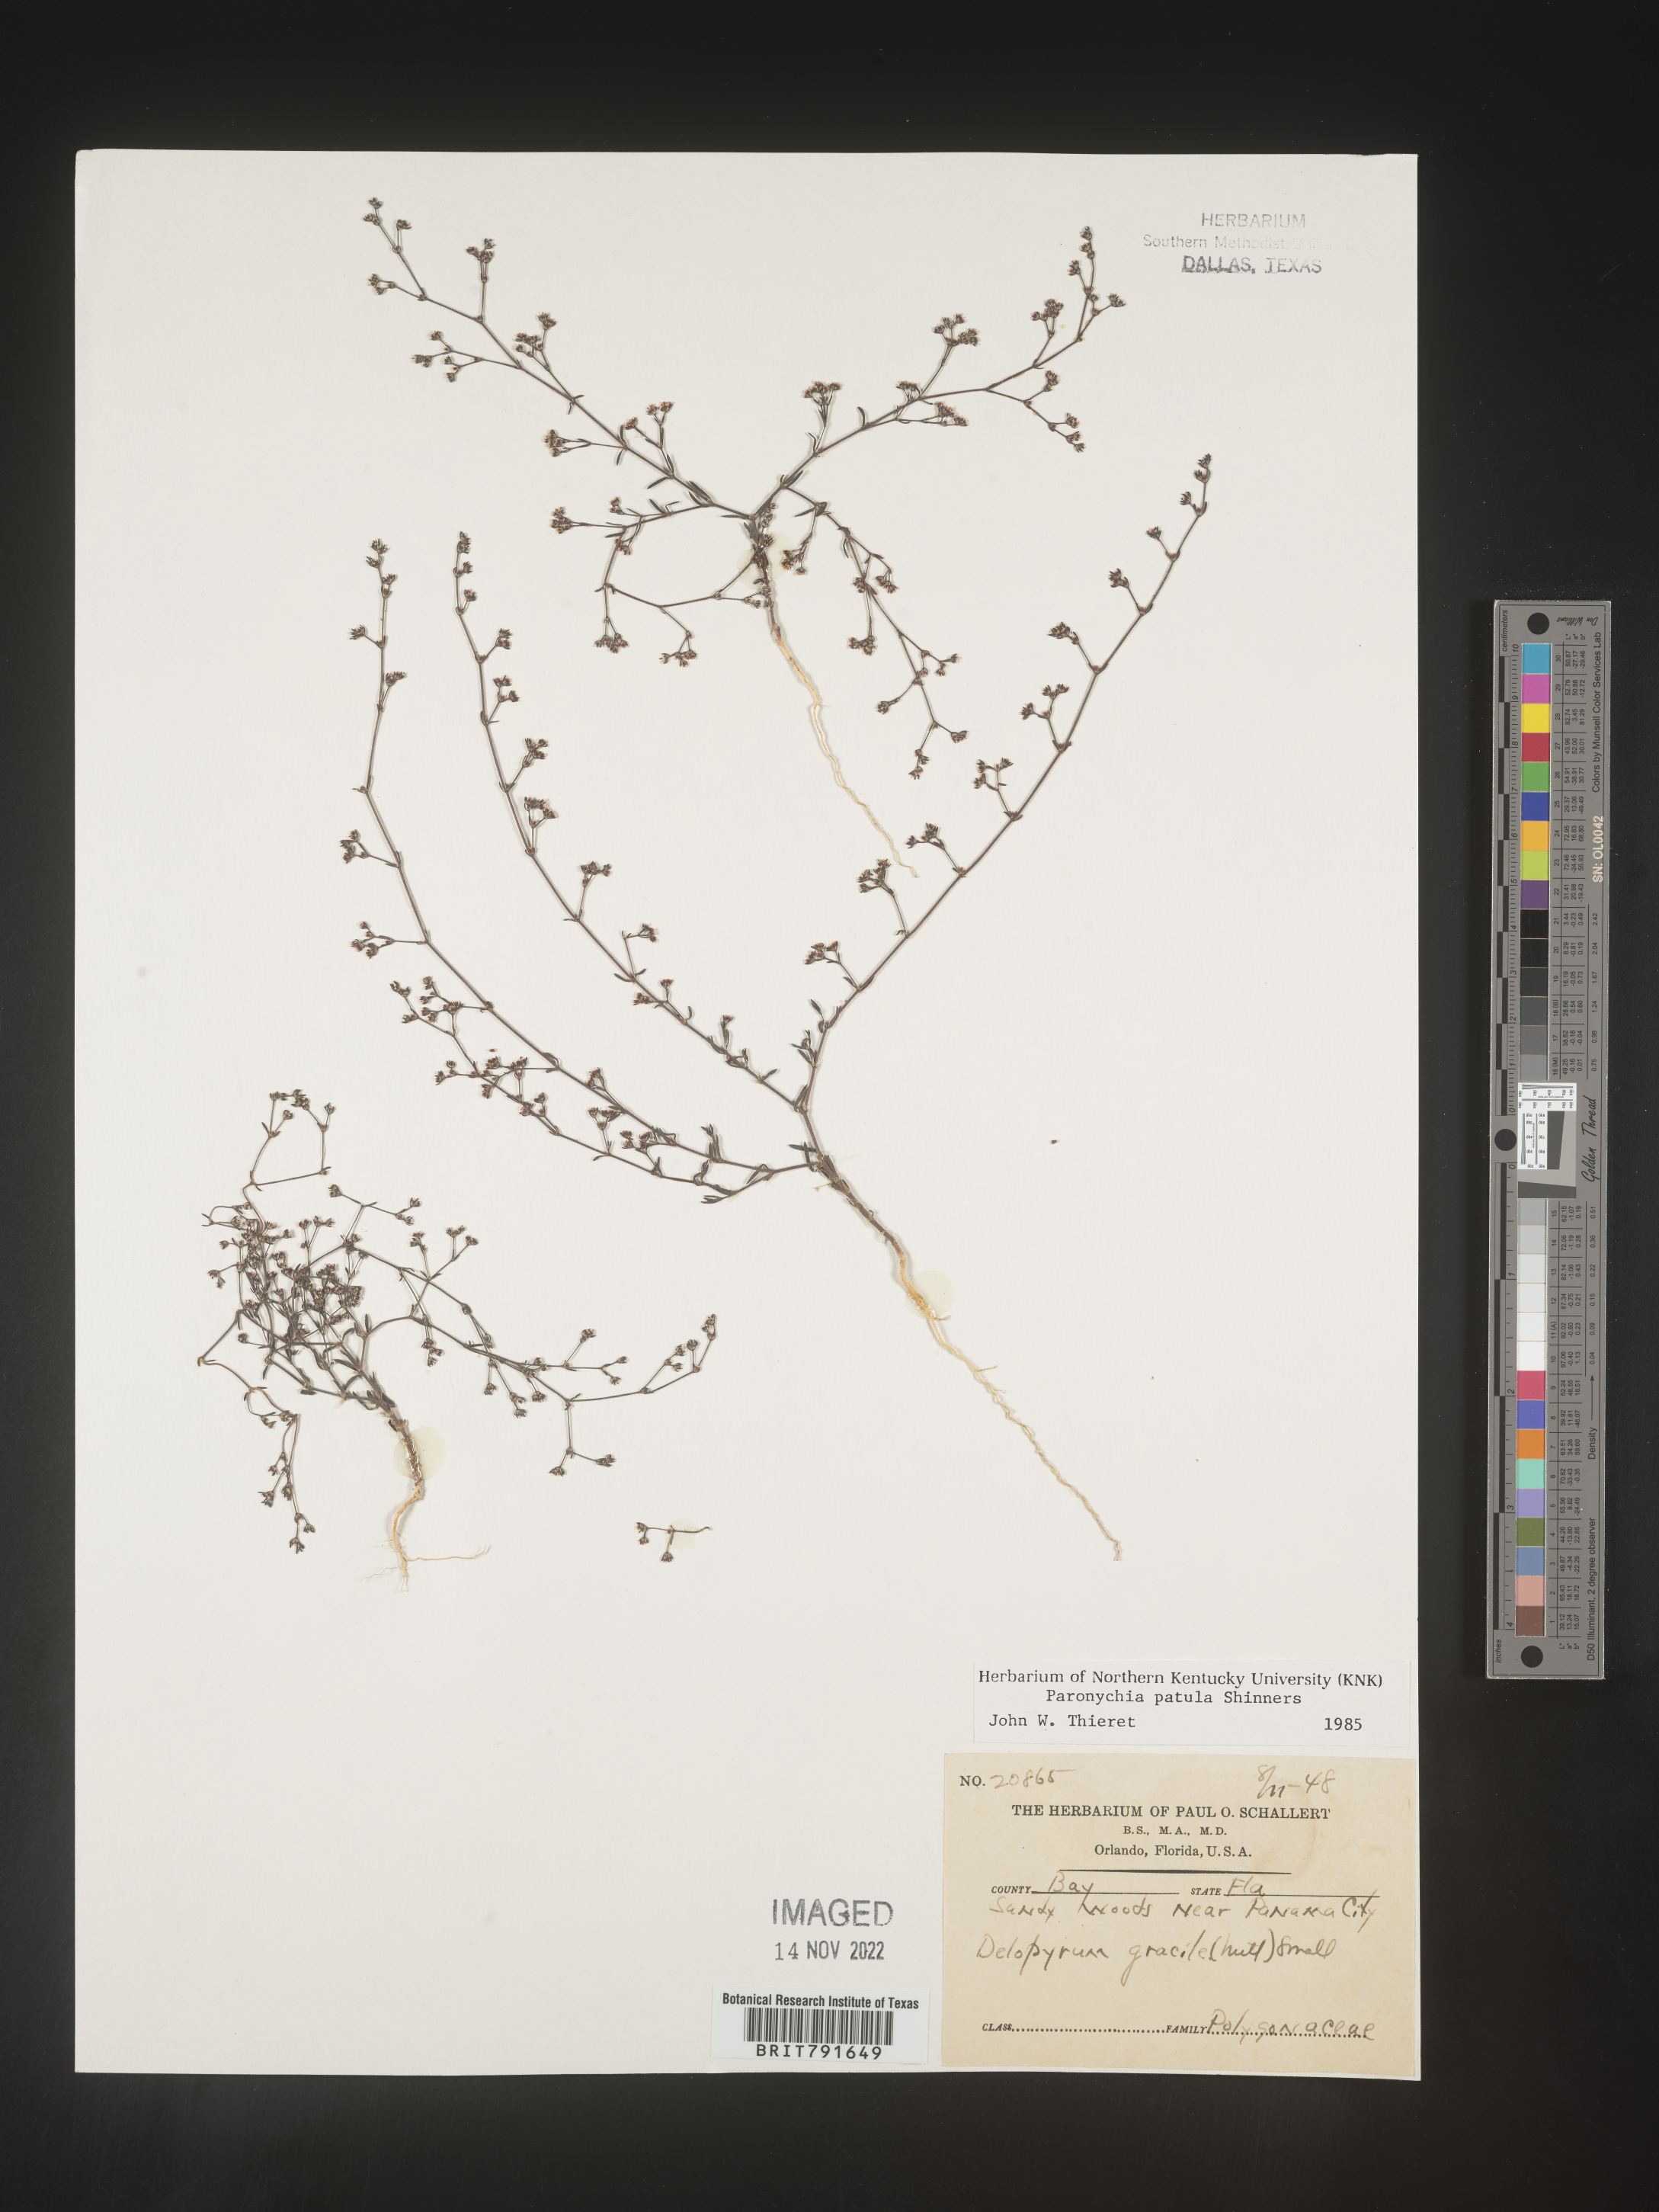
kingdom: Plantae
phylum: Tracheophyta
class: Magnoliopsida
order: Caryophyllales
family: Caryophyllaceae
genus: Paronychia
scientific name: Paronychia patula
